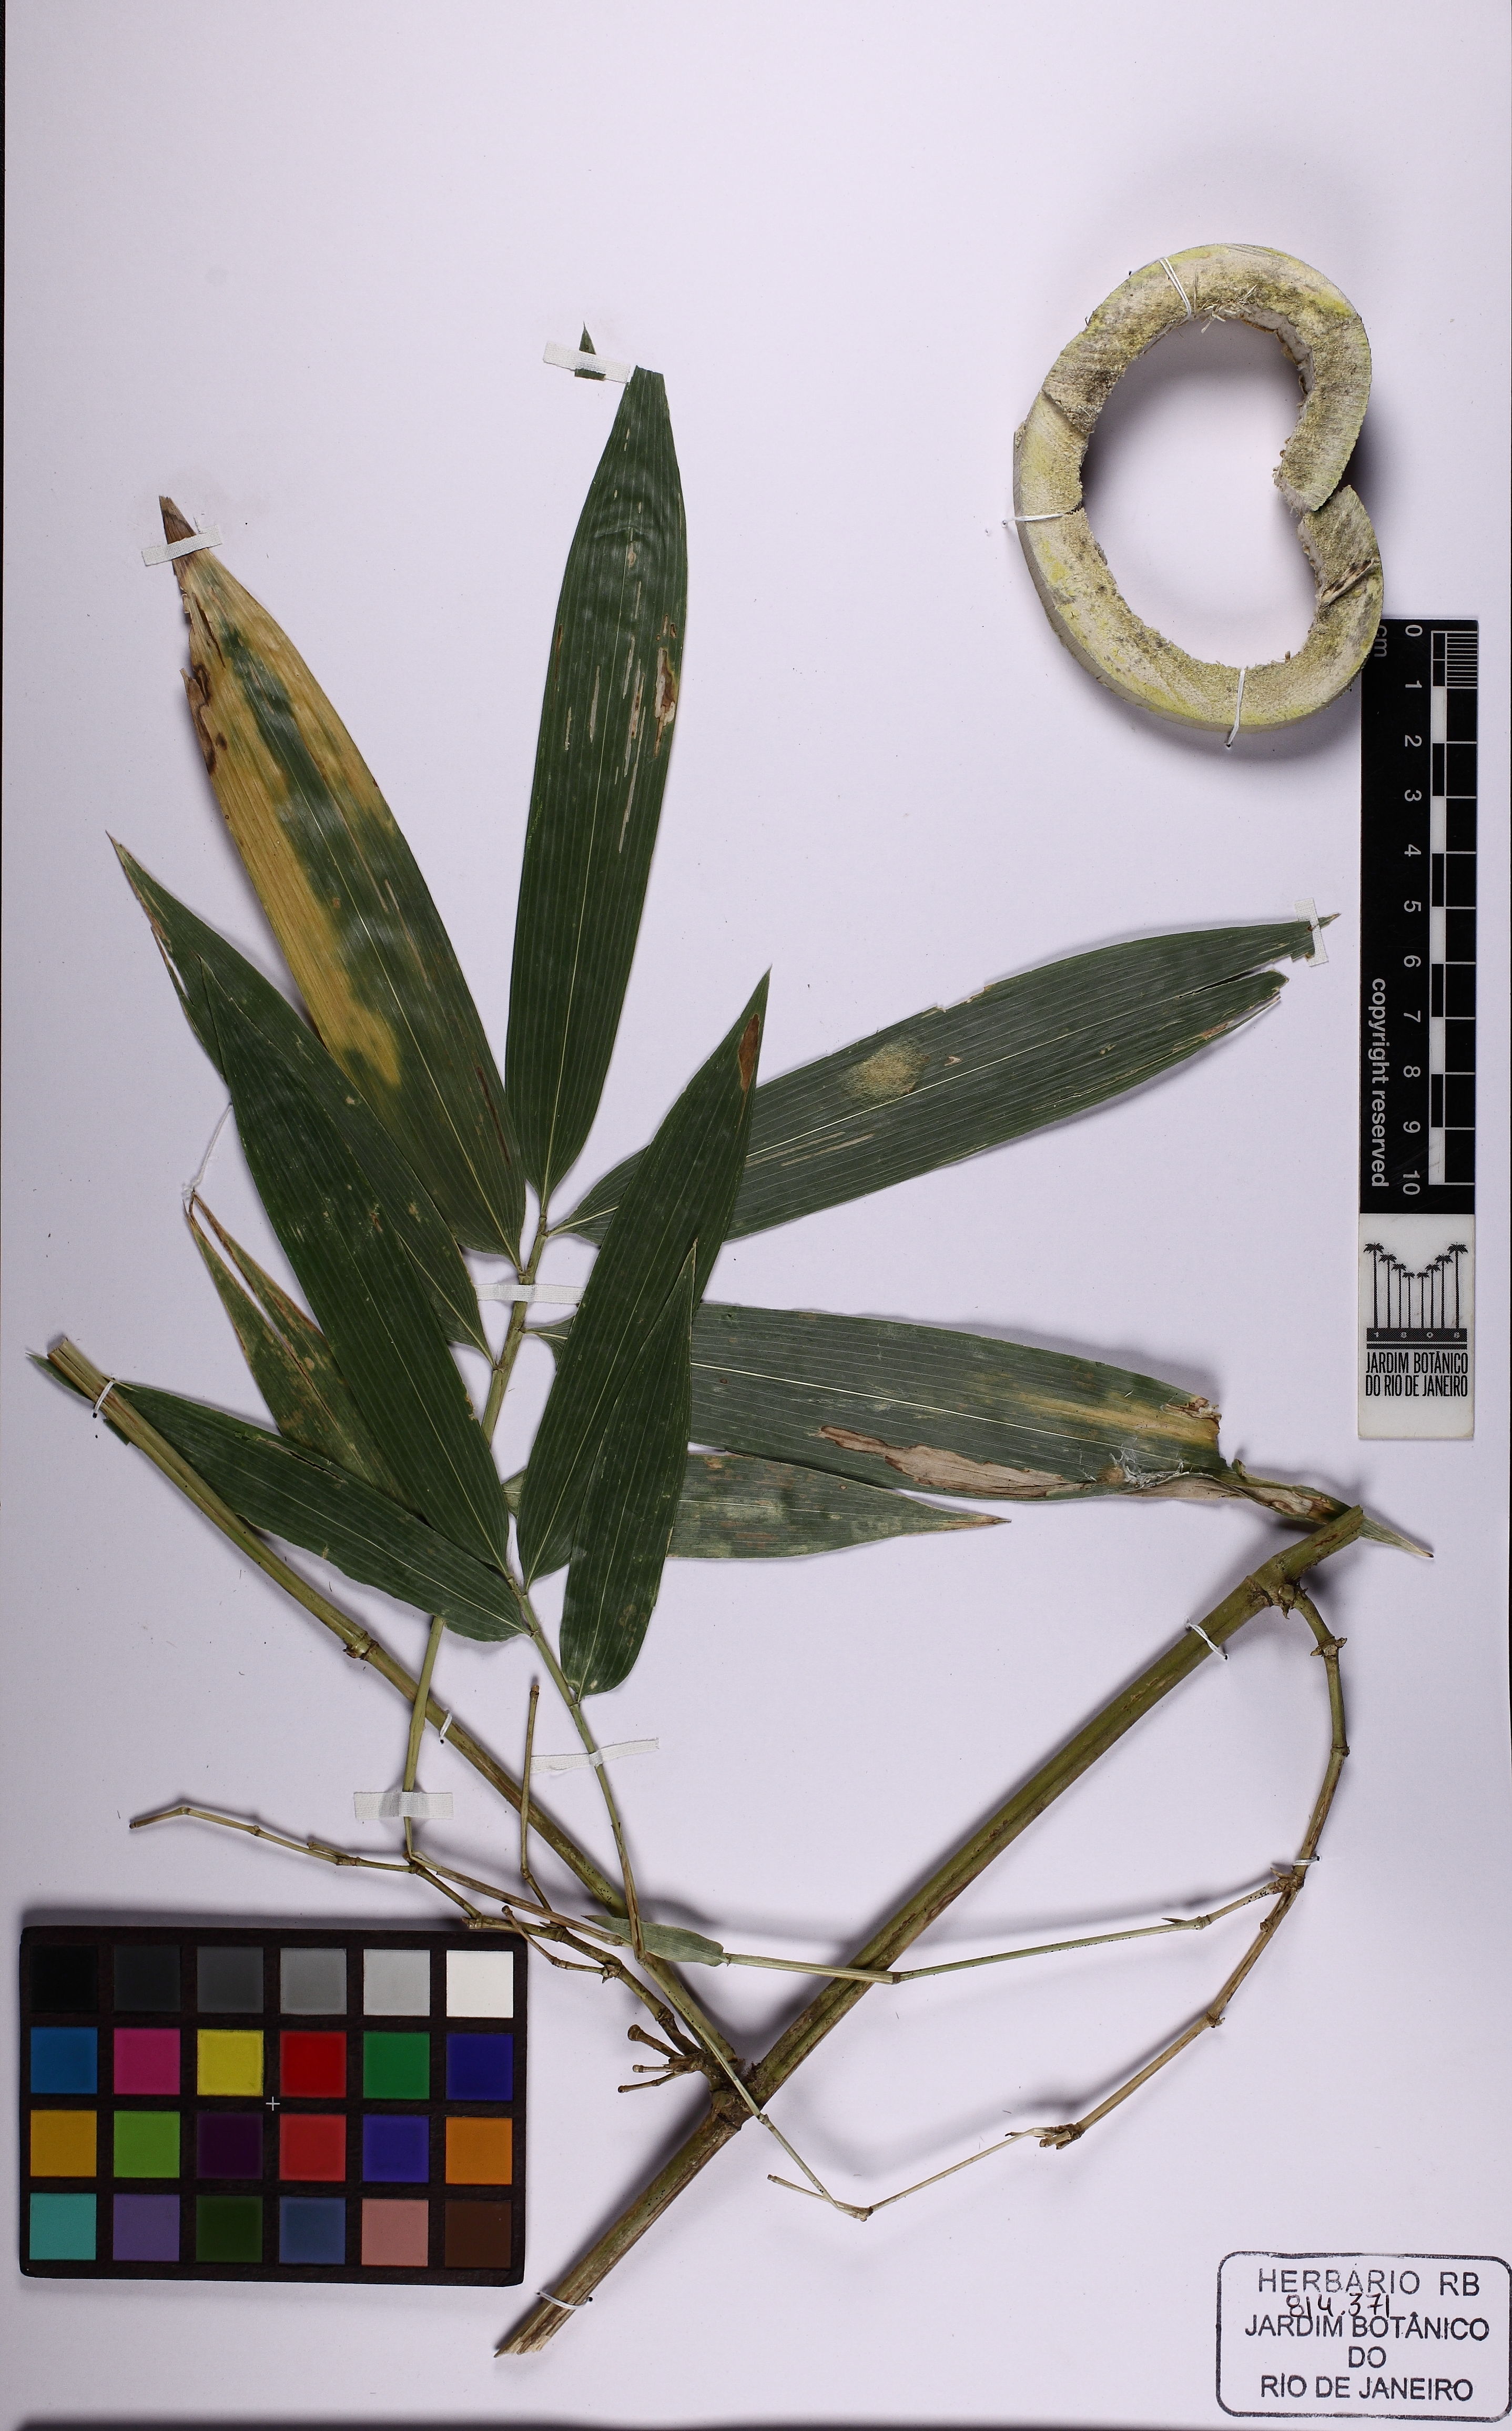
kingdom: Plantae
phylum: Tracheophyta
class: Liliopsida
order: Poales
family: Poaceae
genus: Guadua
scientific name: Guadua magna
